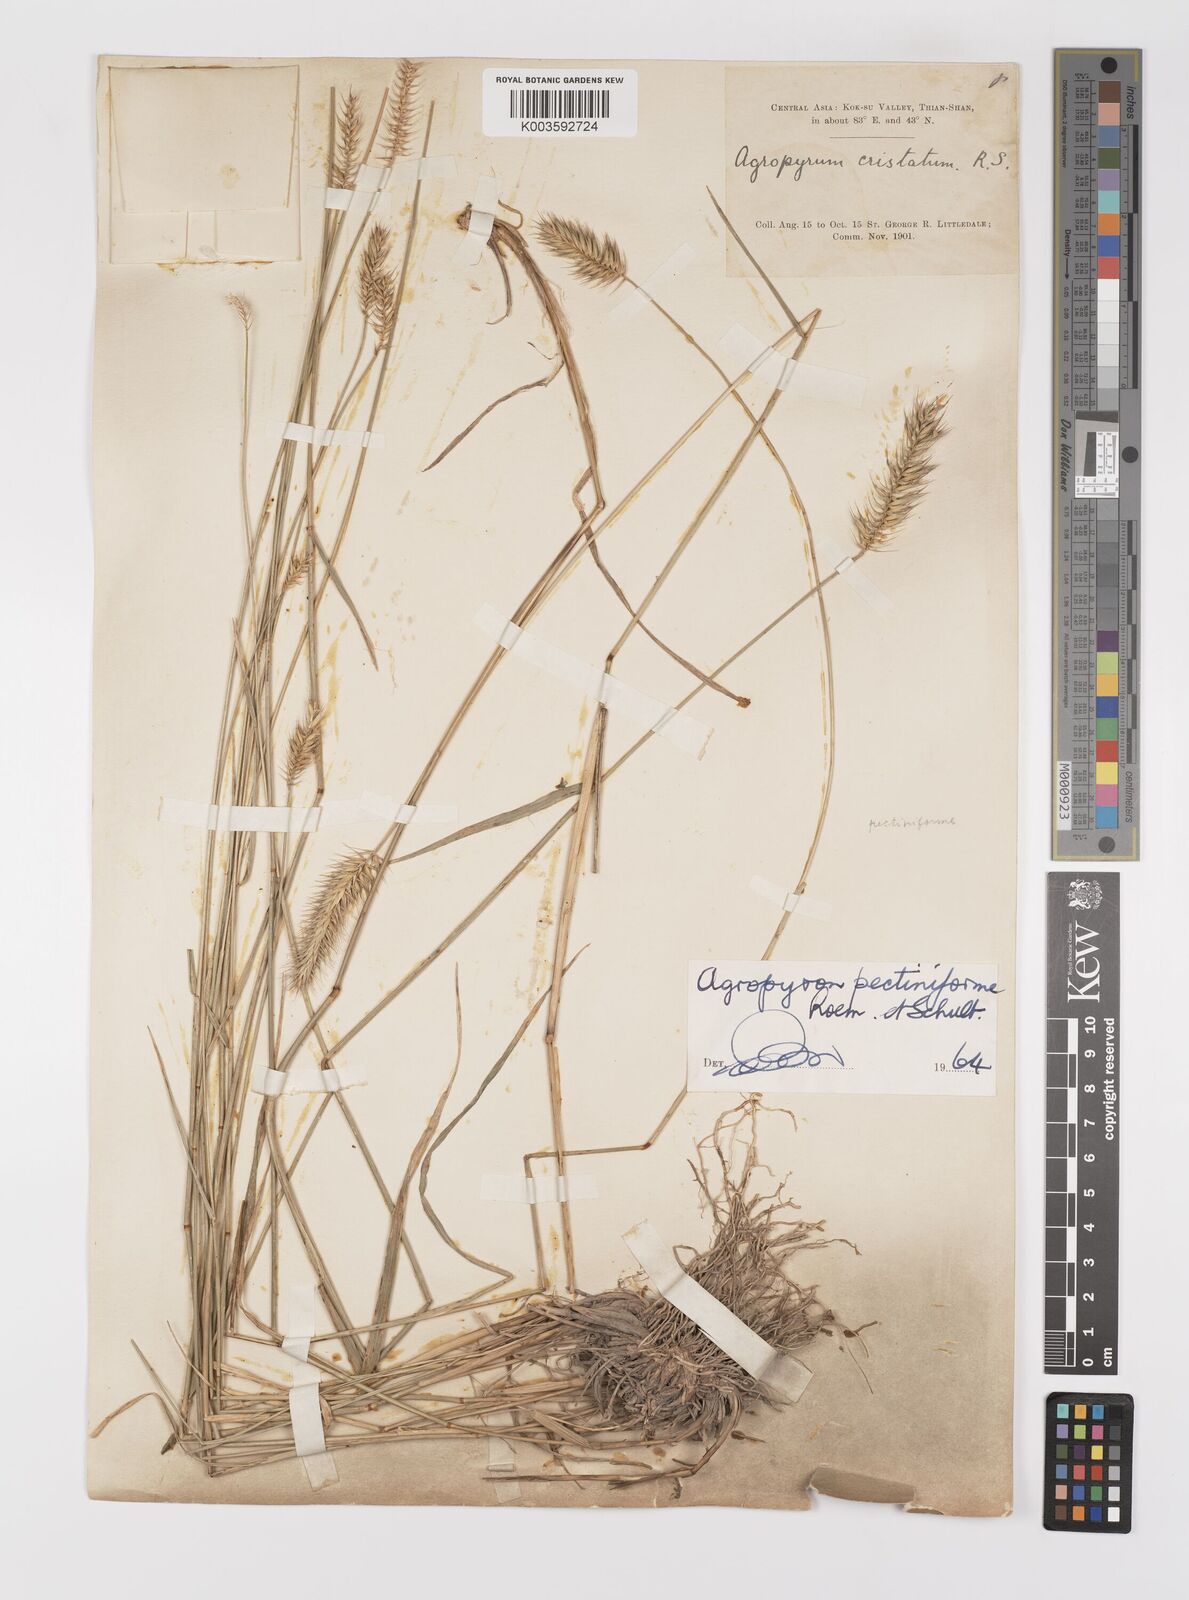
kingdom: Plantae
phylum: Tracheophyta
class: Liliopsida
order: Poales
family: Poaceae
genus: Agropyron
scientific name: Agropyron cristatum
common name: Crested wheatgrass
